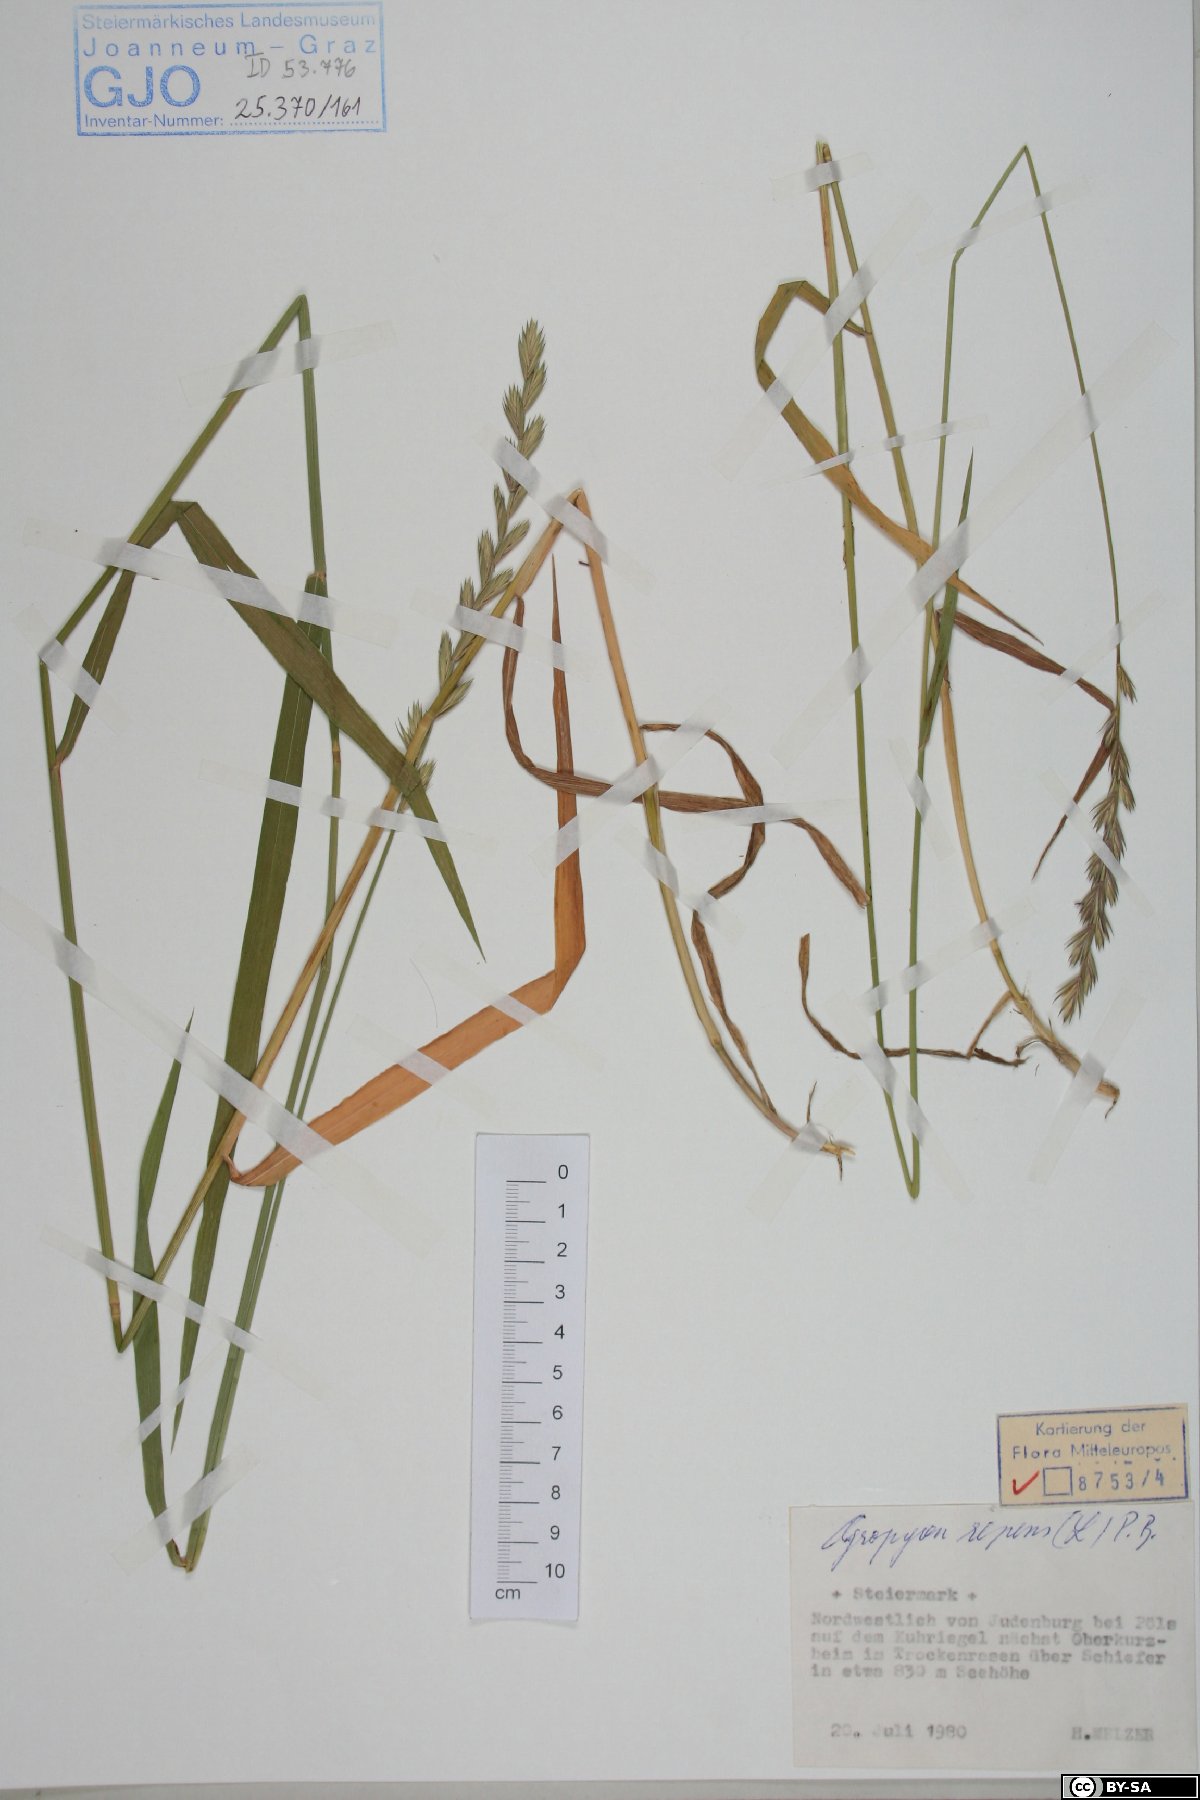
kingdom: Plantae
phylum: Tracheophyta
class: Liliopsida
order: Poales
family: Poaceae
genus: Elymus
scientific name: Elymus repens
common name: Quackgrass
